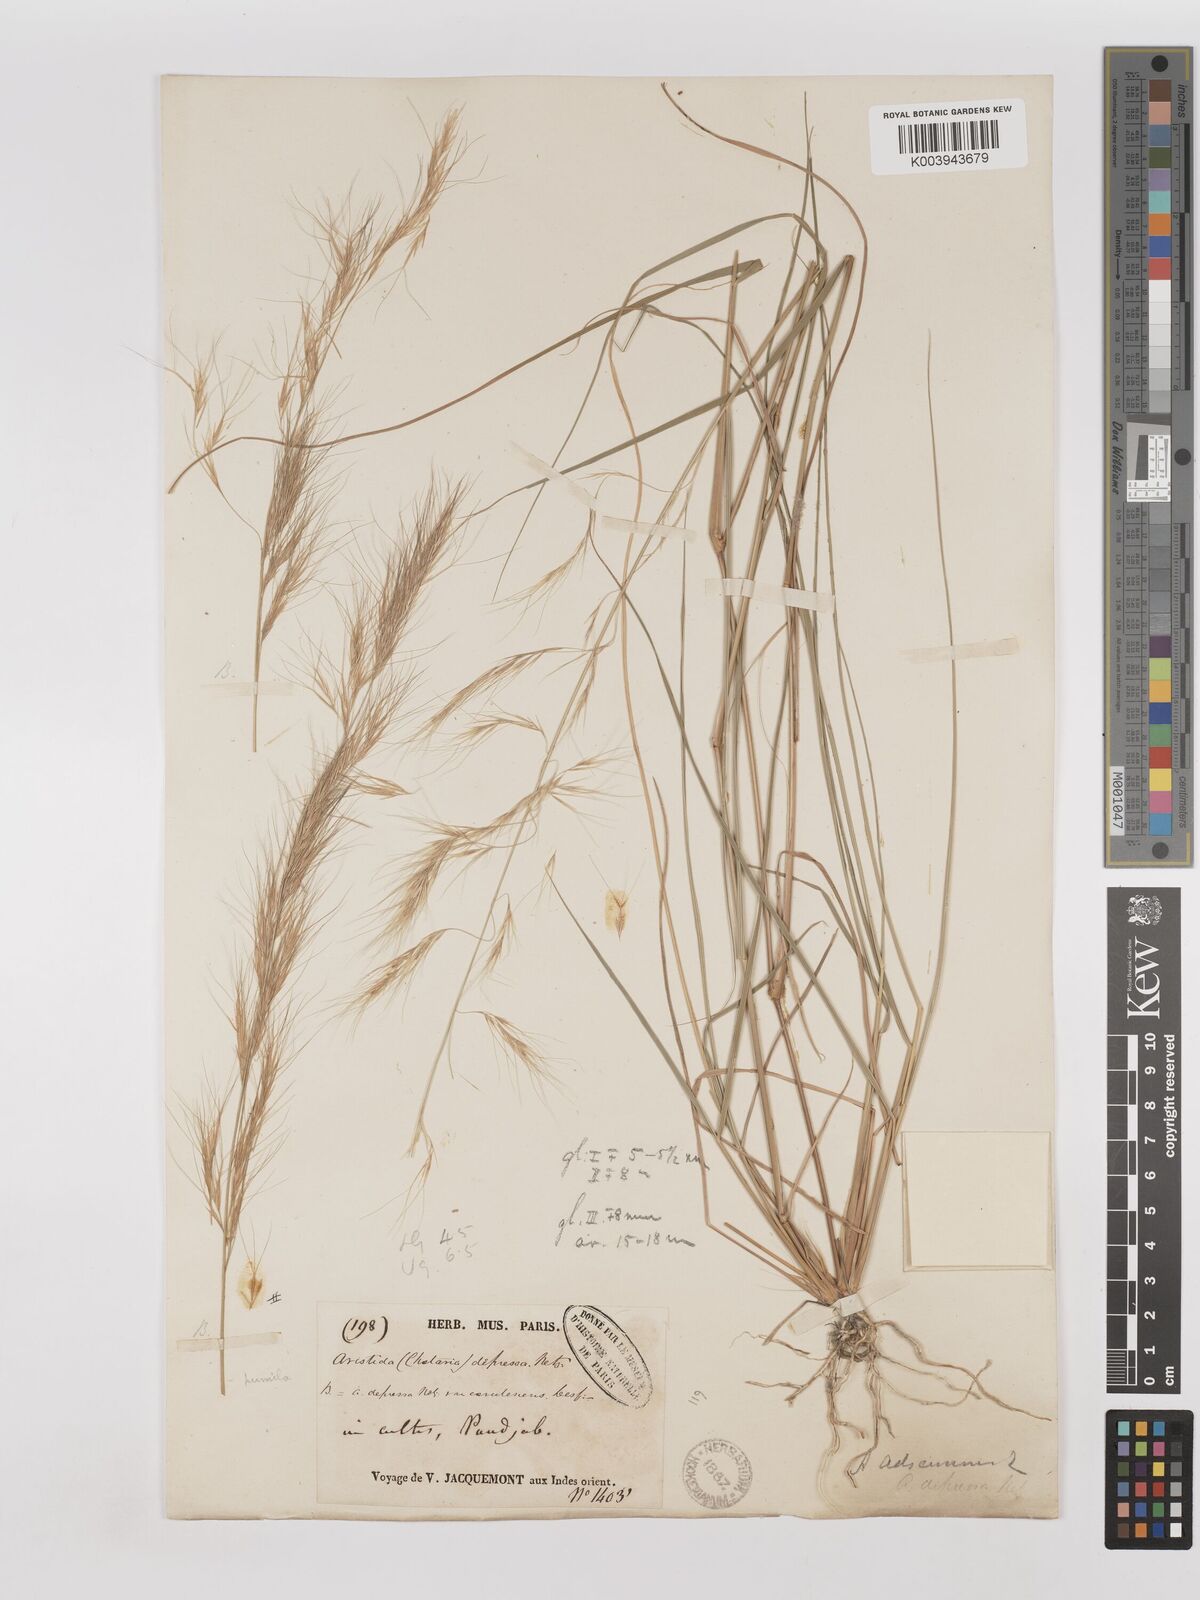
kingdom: Plantae
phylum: Tracheophyta
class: Liliopsida
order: Poales
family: Poaceae
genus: Aristida
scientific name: Aristida adscensionis
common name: Sixweeks threeawn
